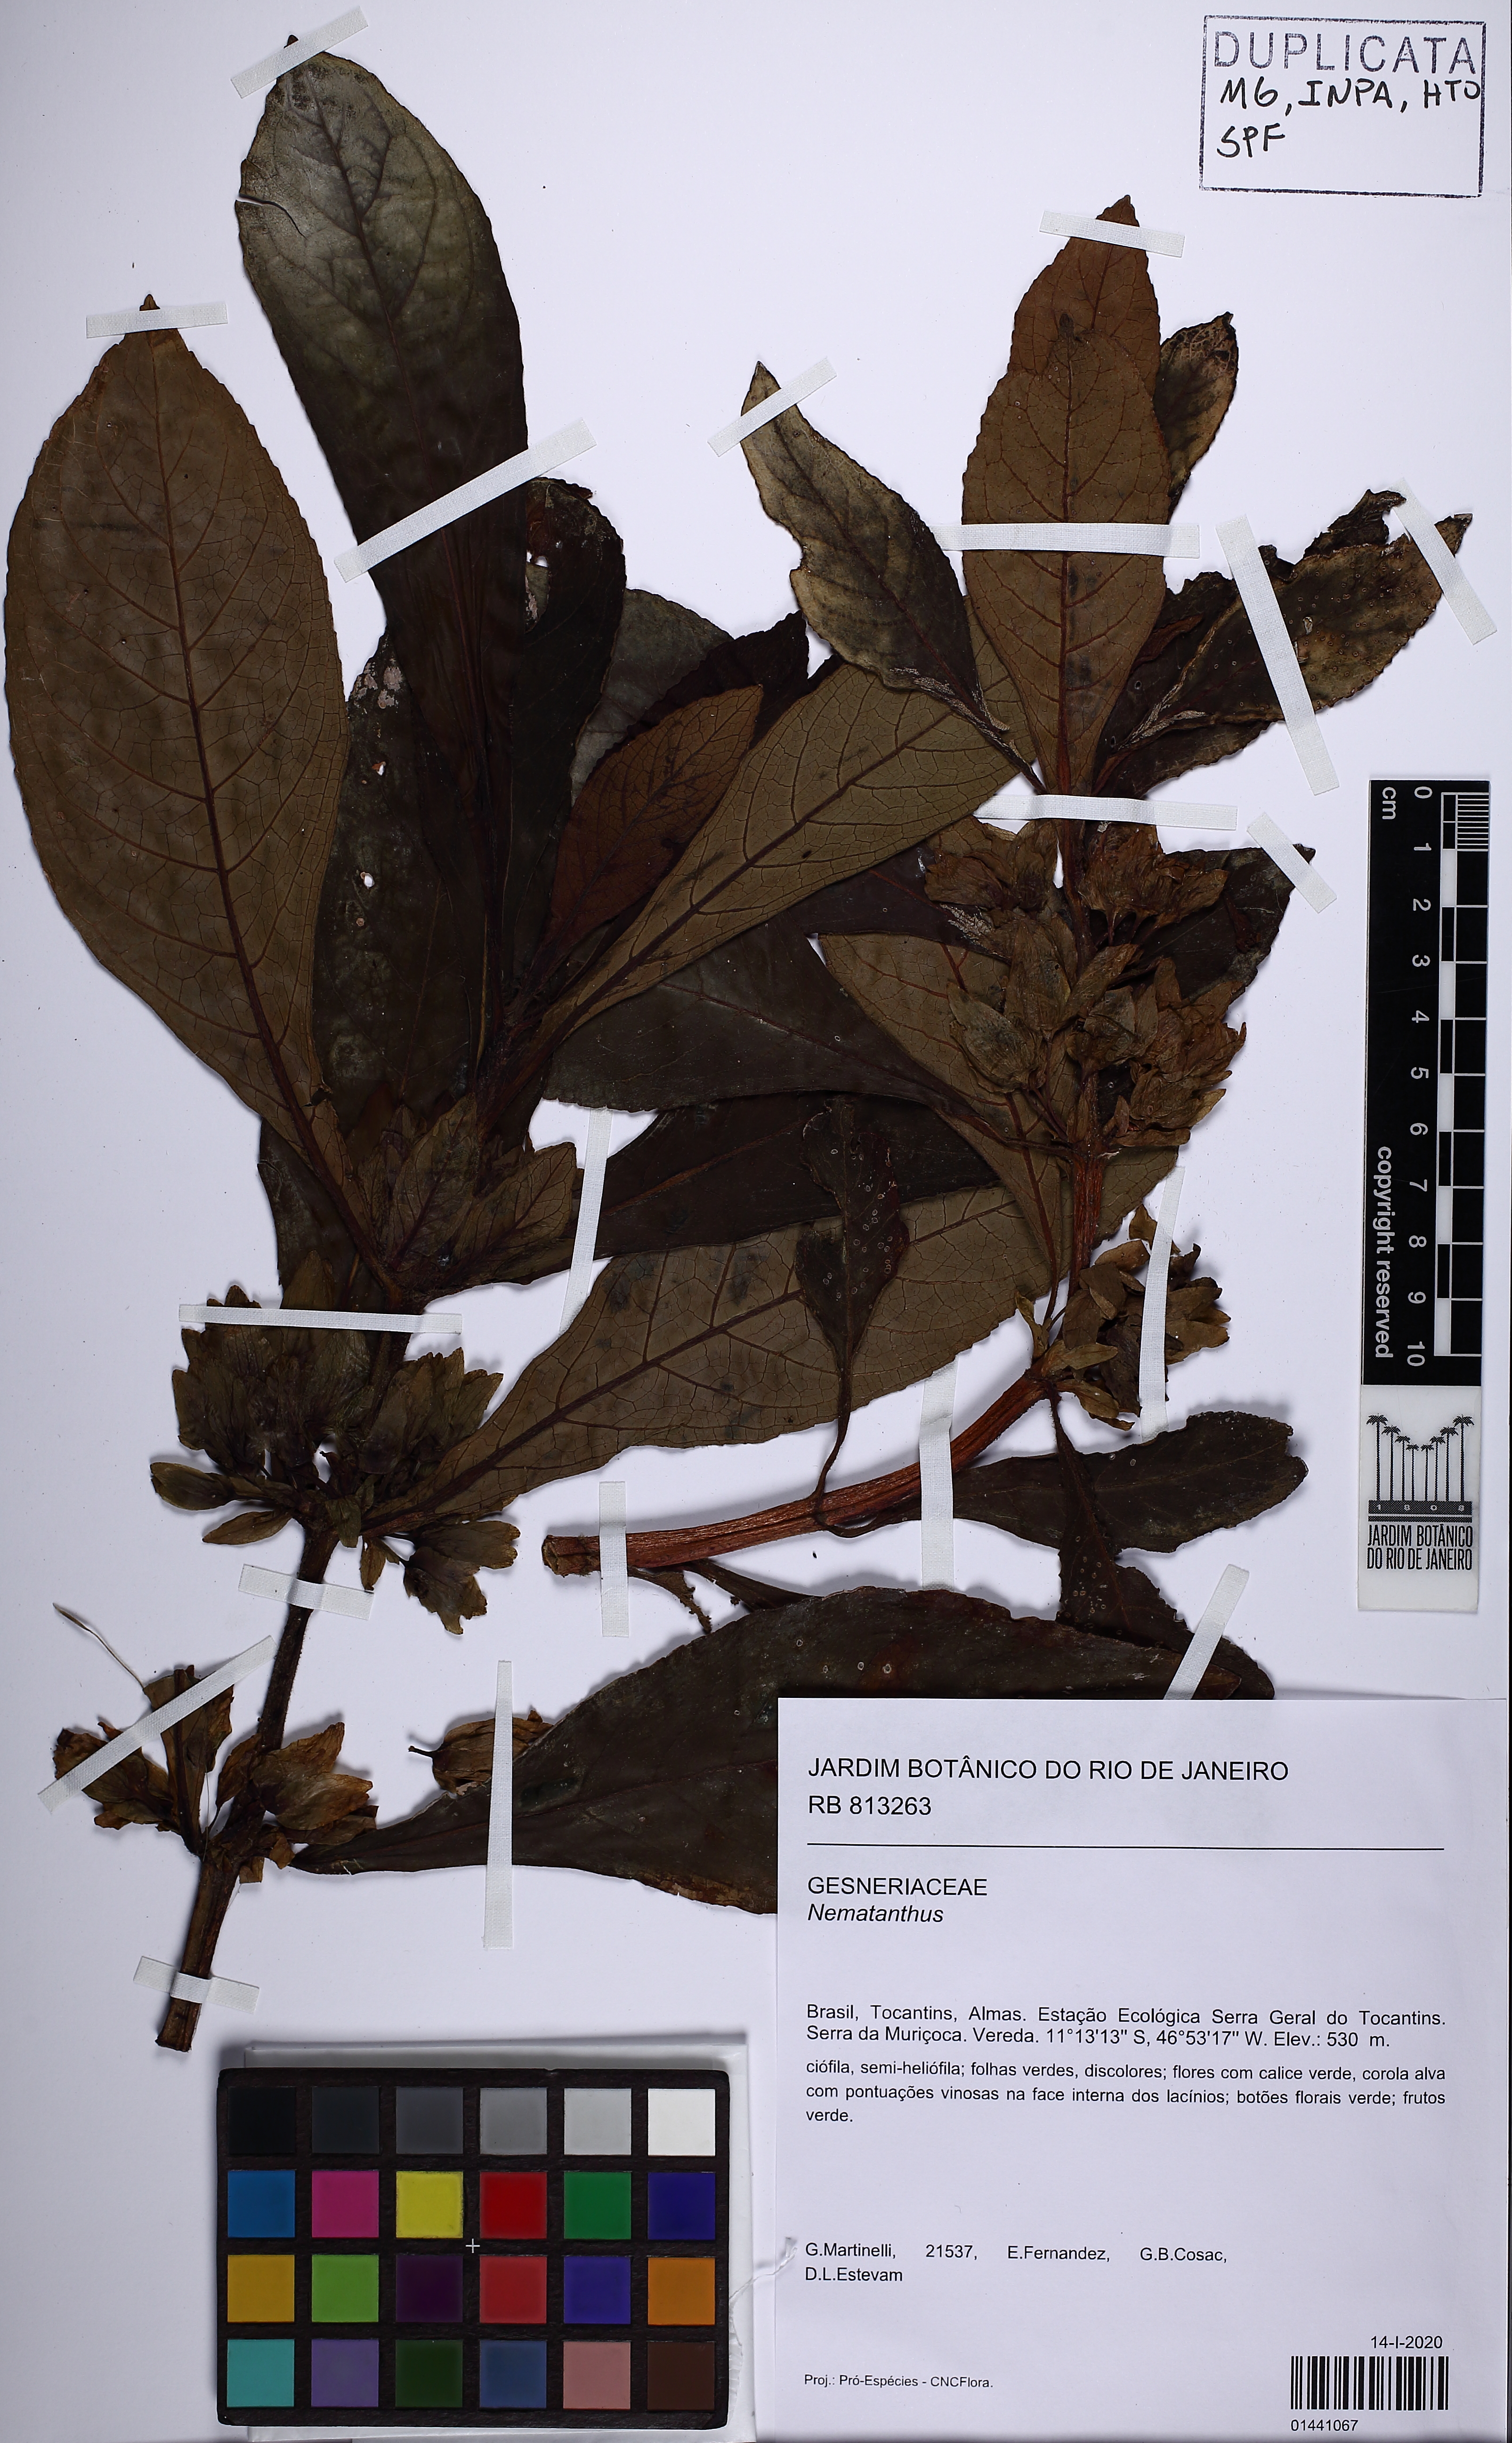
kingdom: Plantae
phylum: Tracheophyta
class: Magnoliopsida
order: Lamiales
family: Gesneriaceae
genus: Nematanthus
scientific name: Nematanthus
